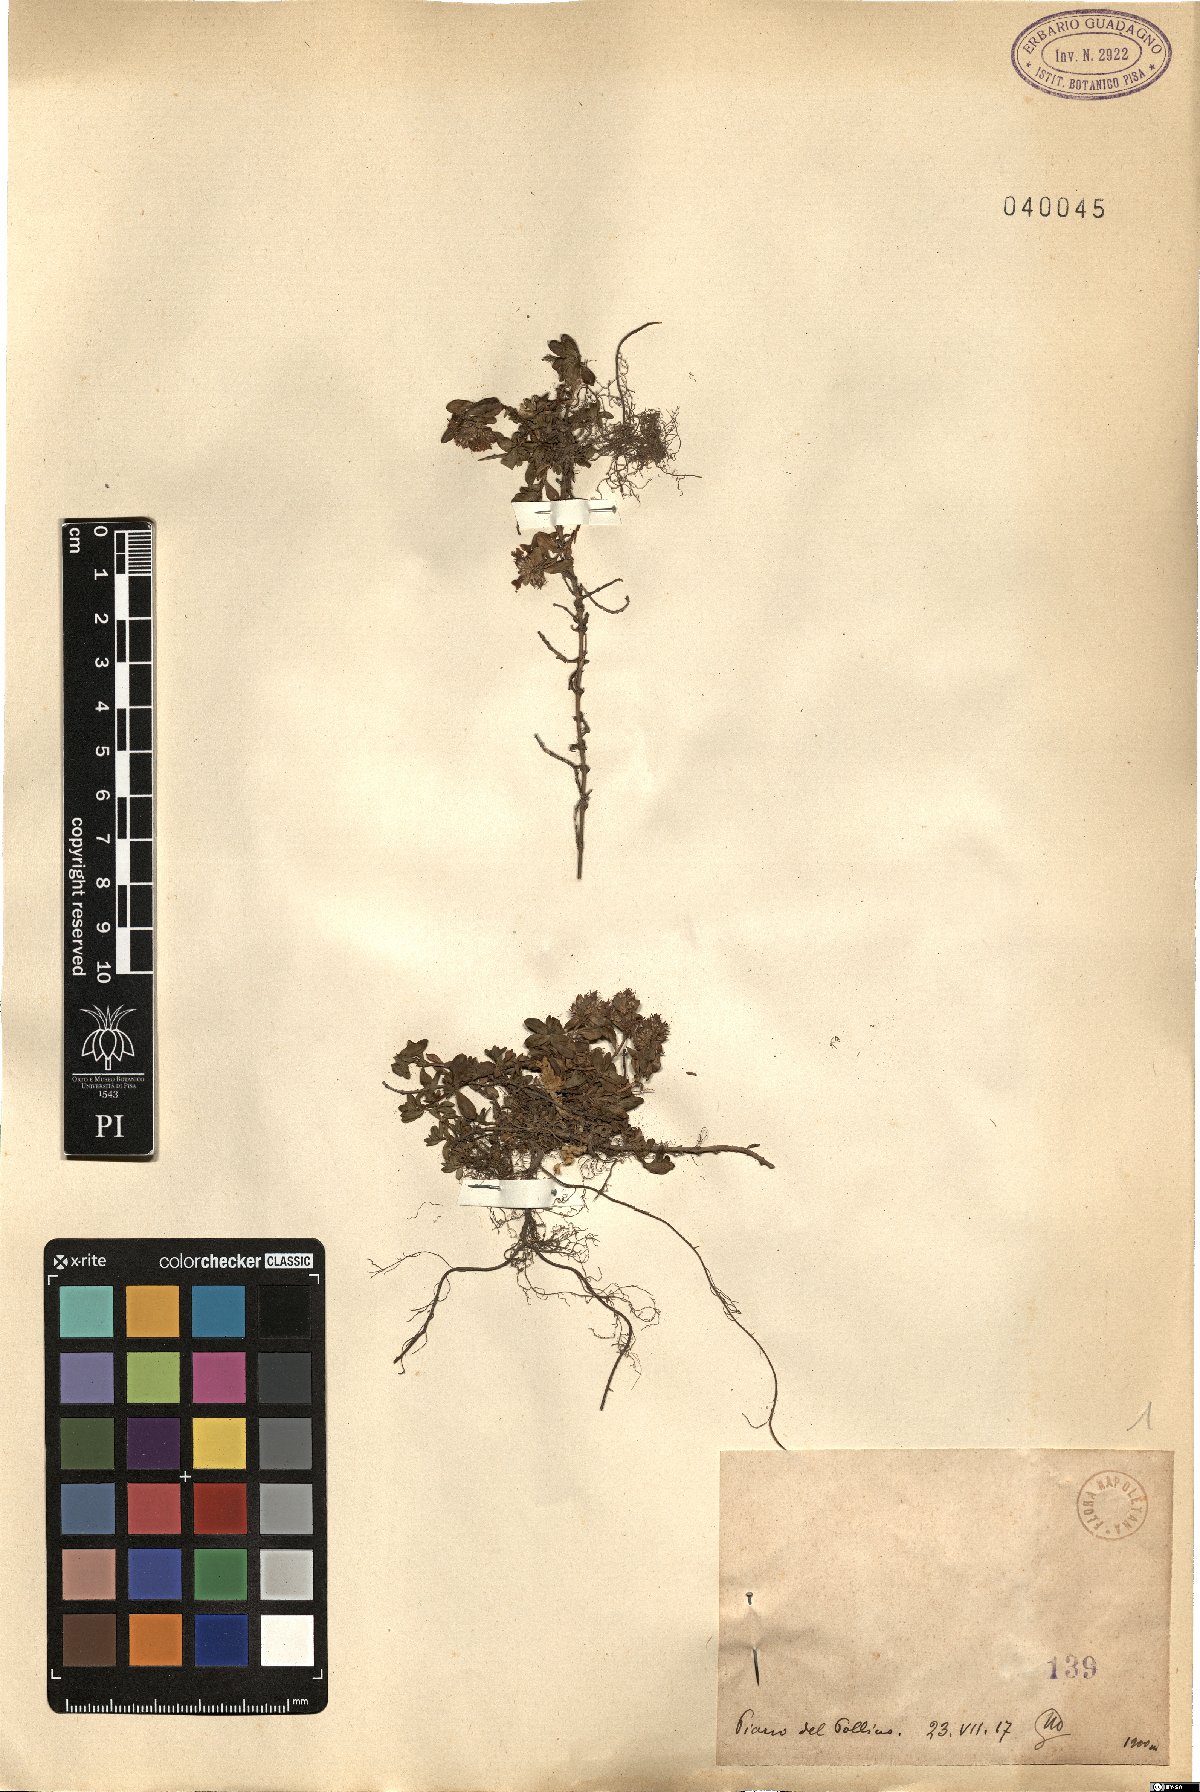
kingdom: Plantae
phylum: Tracheophyta
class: Magnoliopsida
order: Lamiales
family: Lamiaceae
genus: Thymus
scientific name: Thymus
